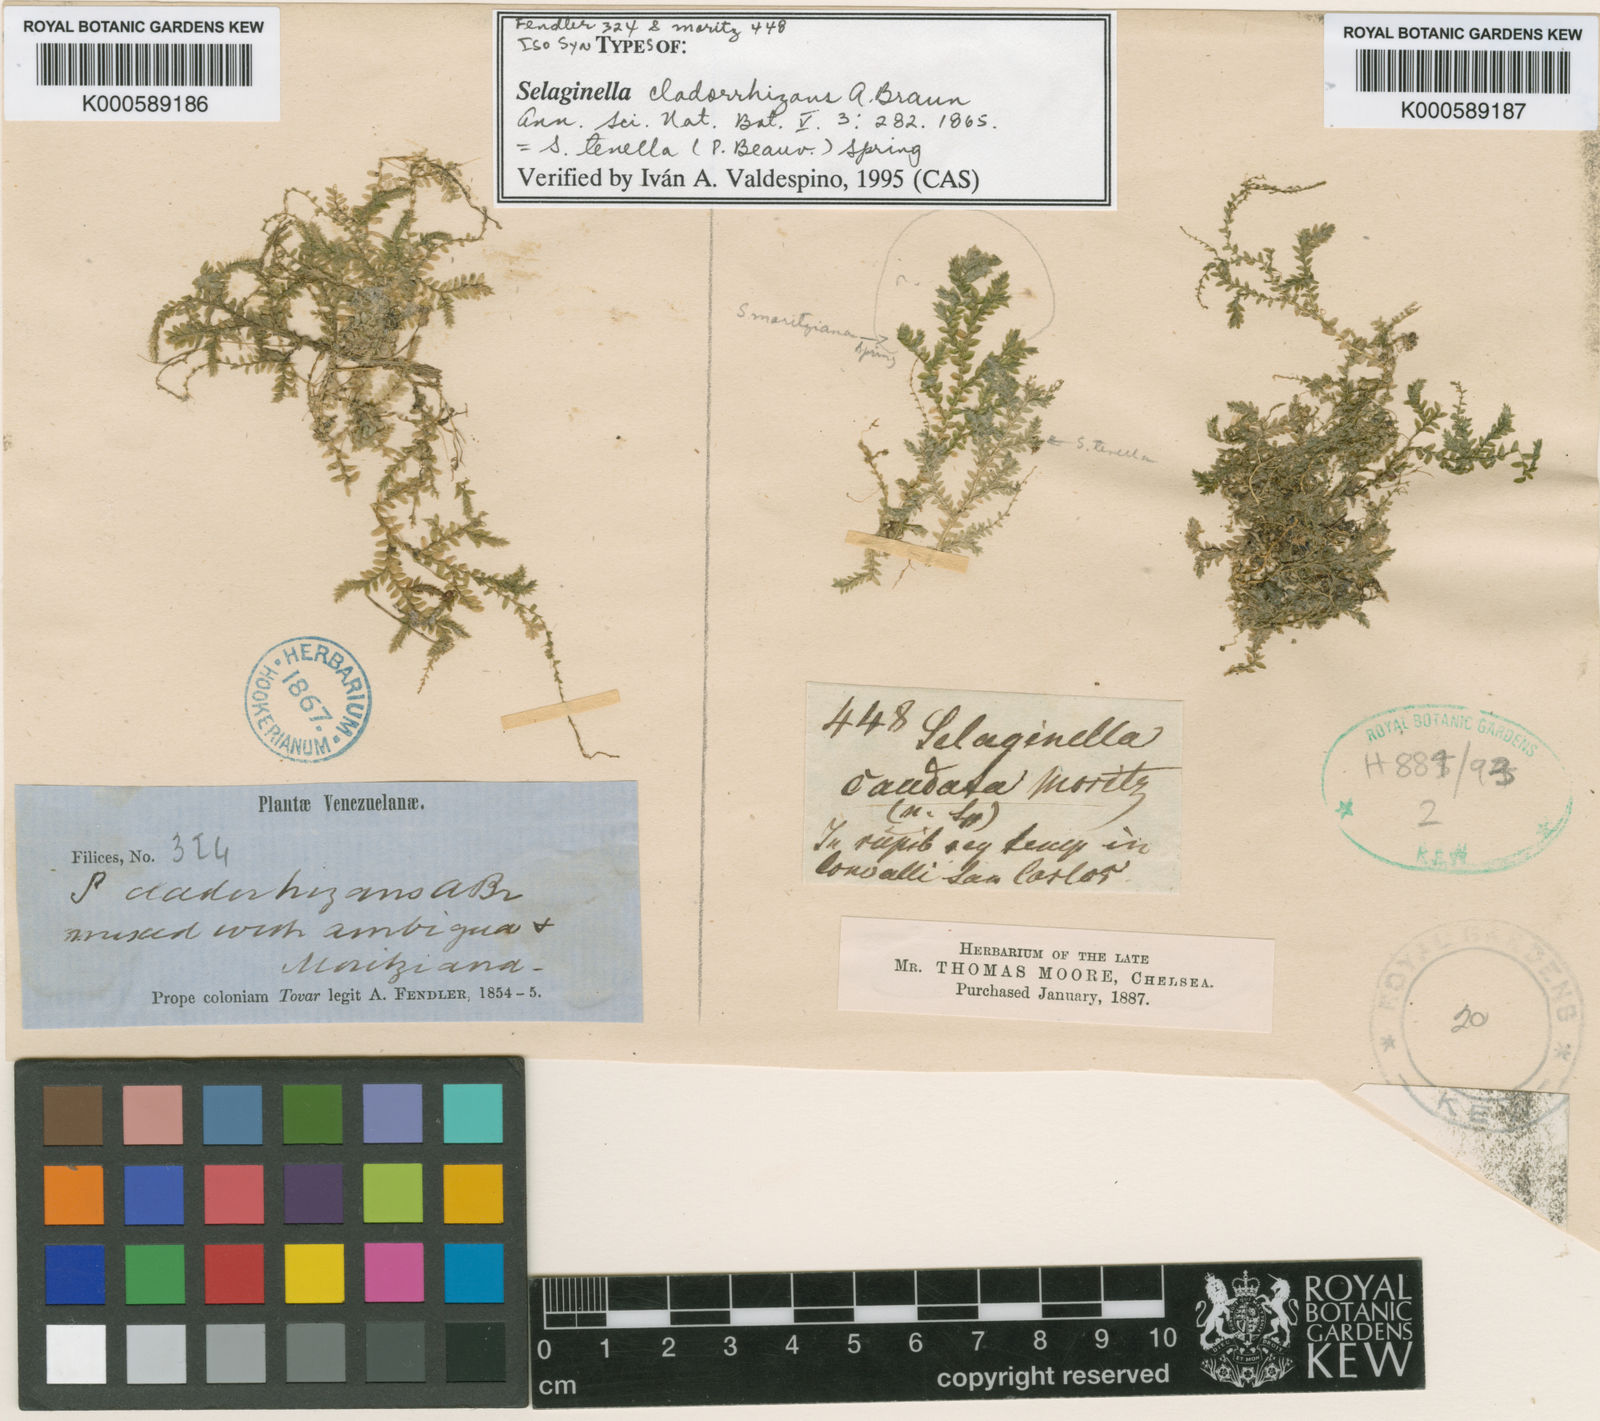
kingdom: Plantae
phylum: Tracheophyta
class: Lycopodiopsida
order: Selaginellales
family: Selaginellaceae
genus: Selaginella
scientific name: Selaginella tenella
